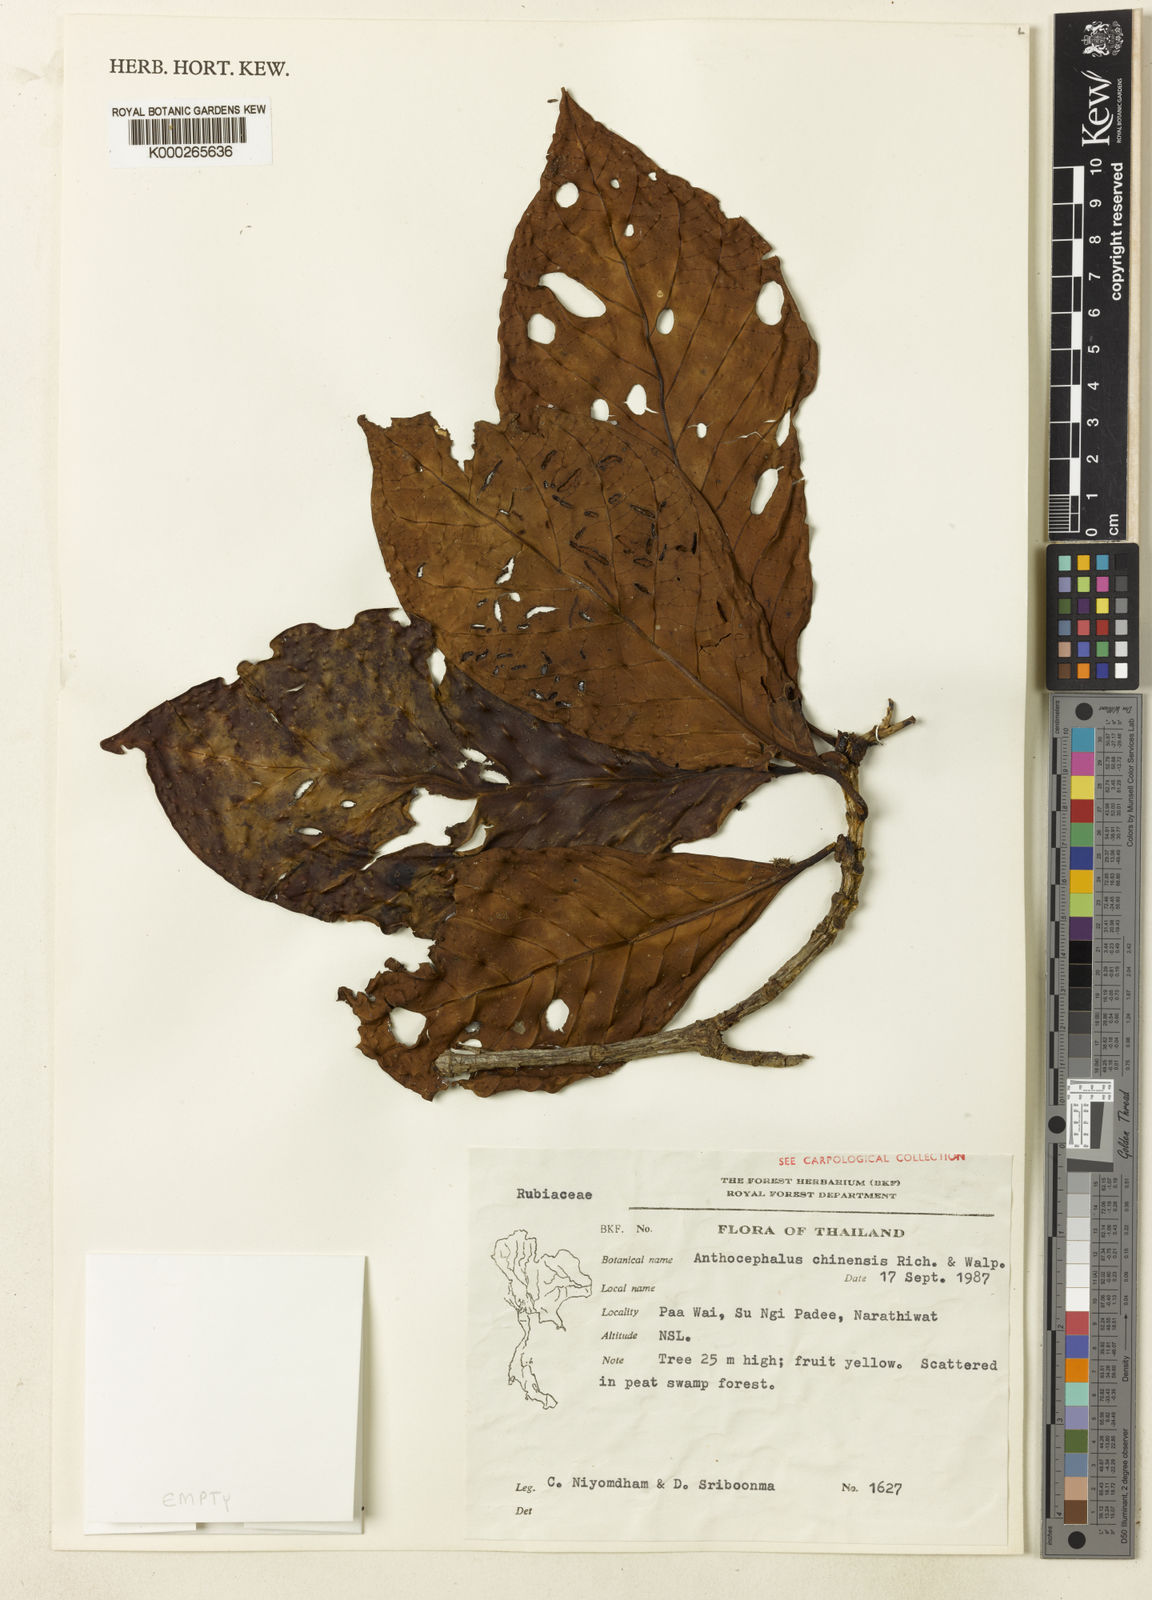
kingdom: Plantae
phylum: Tracheophyta
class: Magnoliopsida
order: Gentianales
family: Rubiaceae
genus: Neolamarckia
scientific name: Neolamarckia cadamba
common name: Leichhardt-pine
